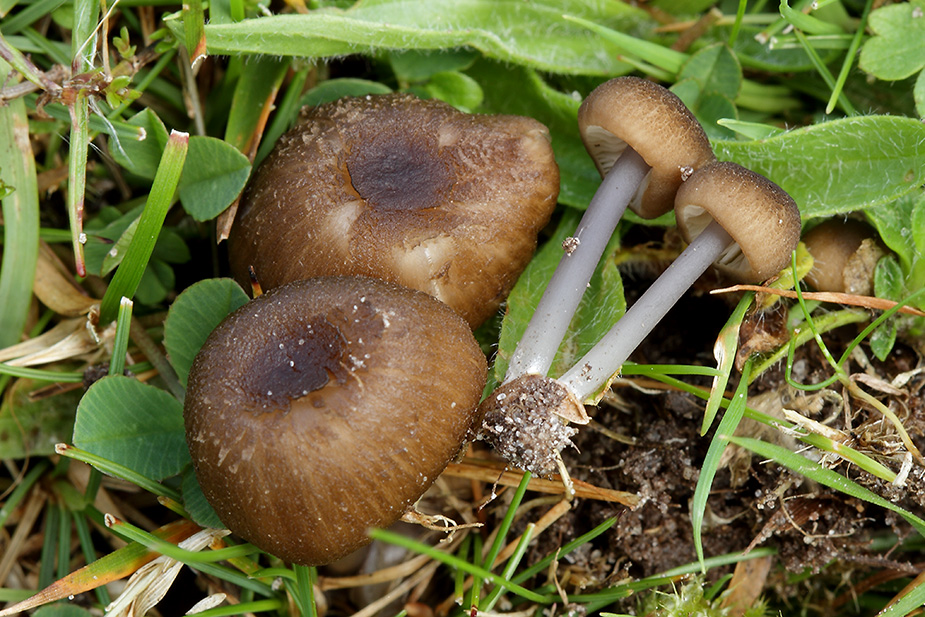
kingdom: Fungi
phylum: Basidiomycota
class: Agaricomycetes
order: Agaricales
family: Entolomataceae
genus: Entoloma
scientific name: Entoloma asprellum
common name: ru rødblad
